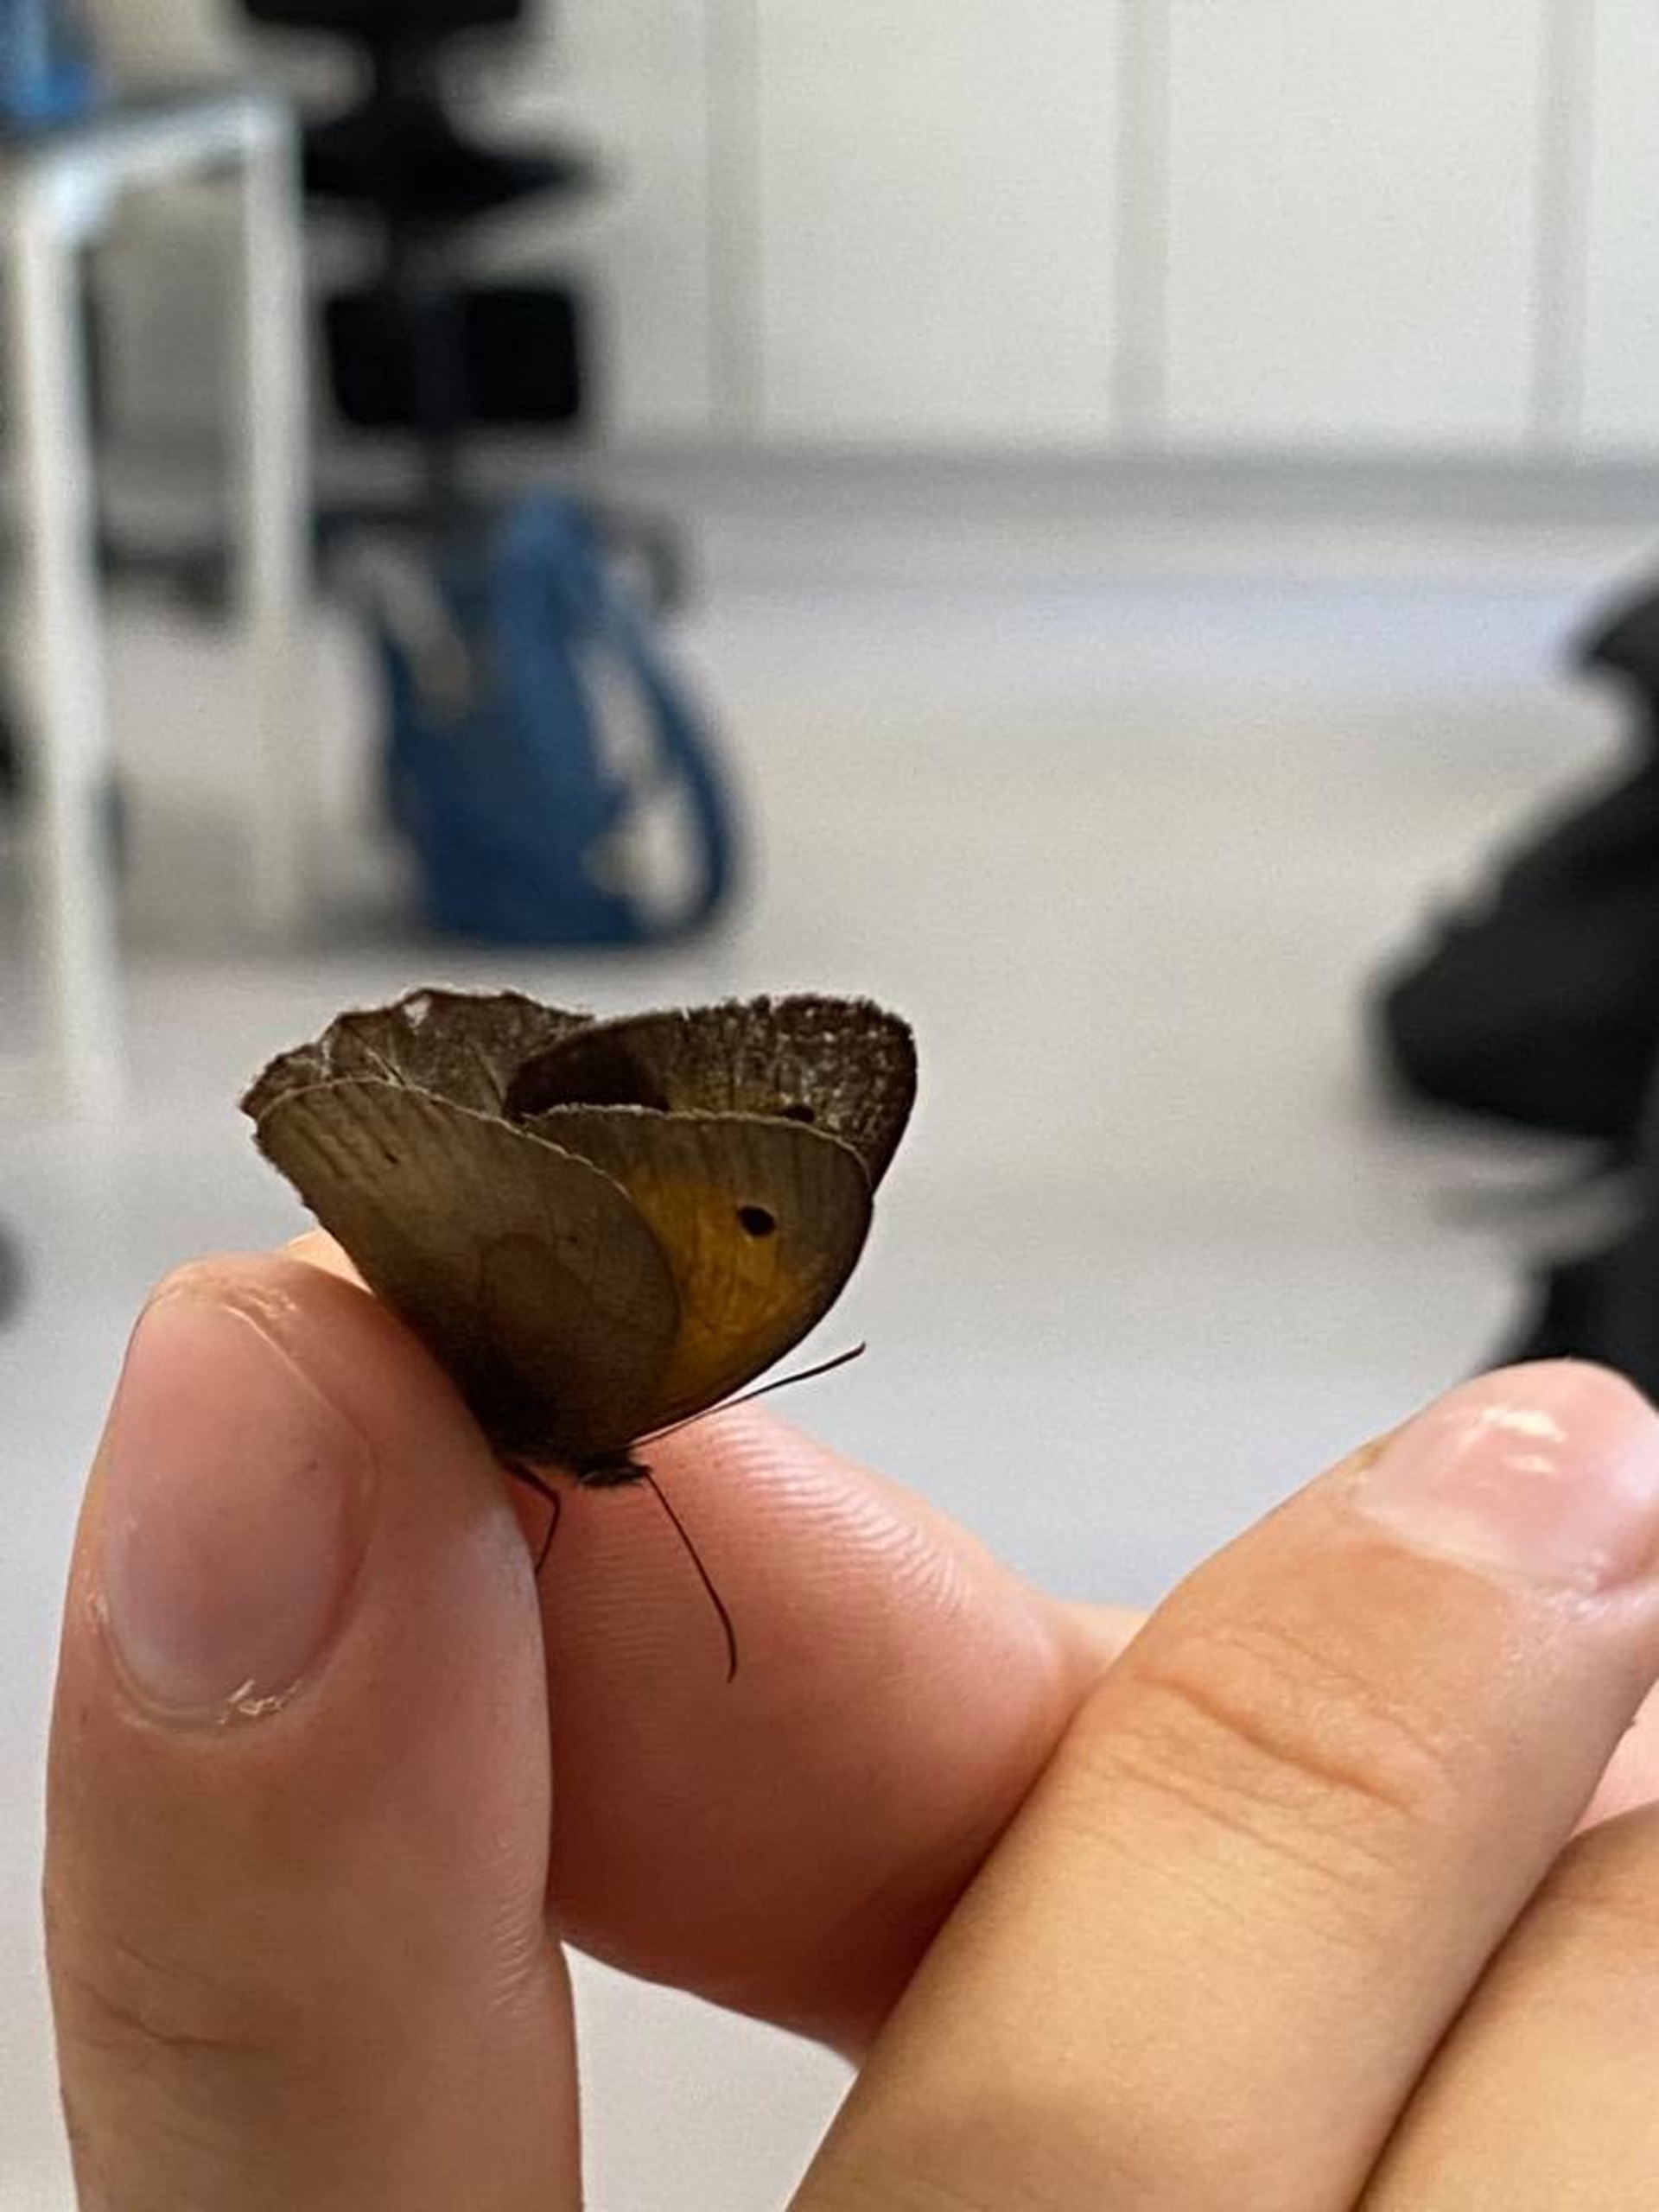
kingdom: Animalia
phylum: Arthropoda
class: Insecta
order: Lepidoptera
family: Nymphalidae
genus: Maniola
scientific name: Maniola jurtina
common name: Græsrandøje
